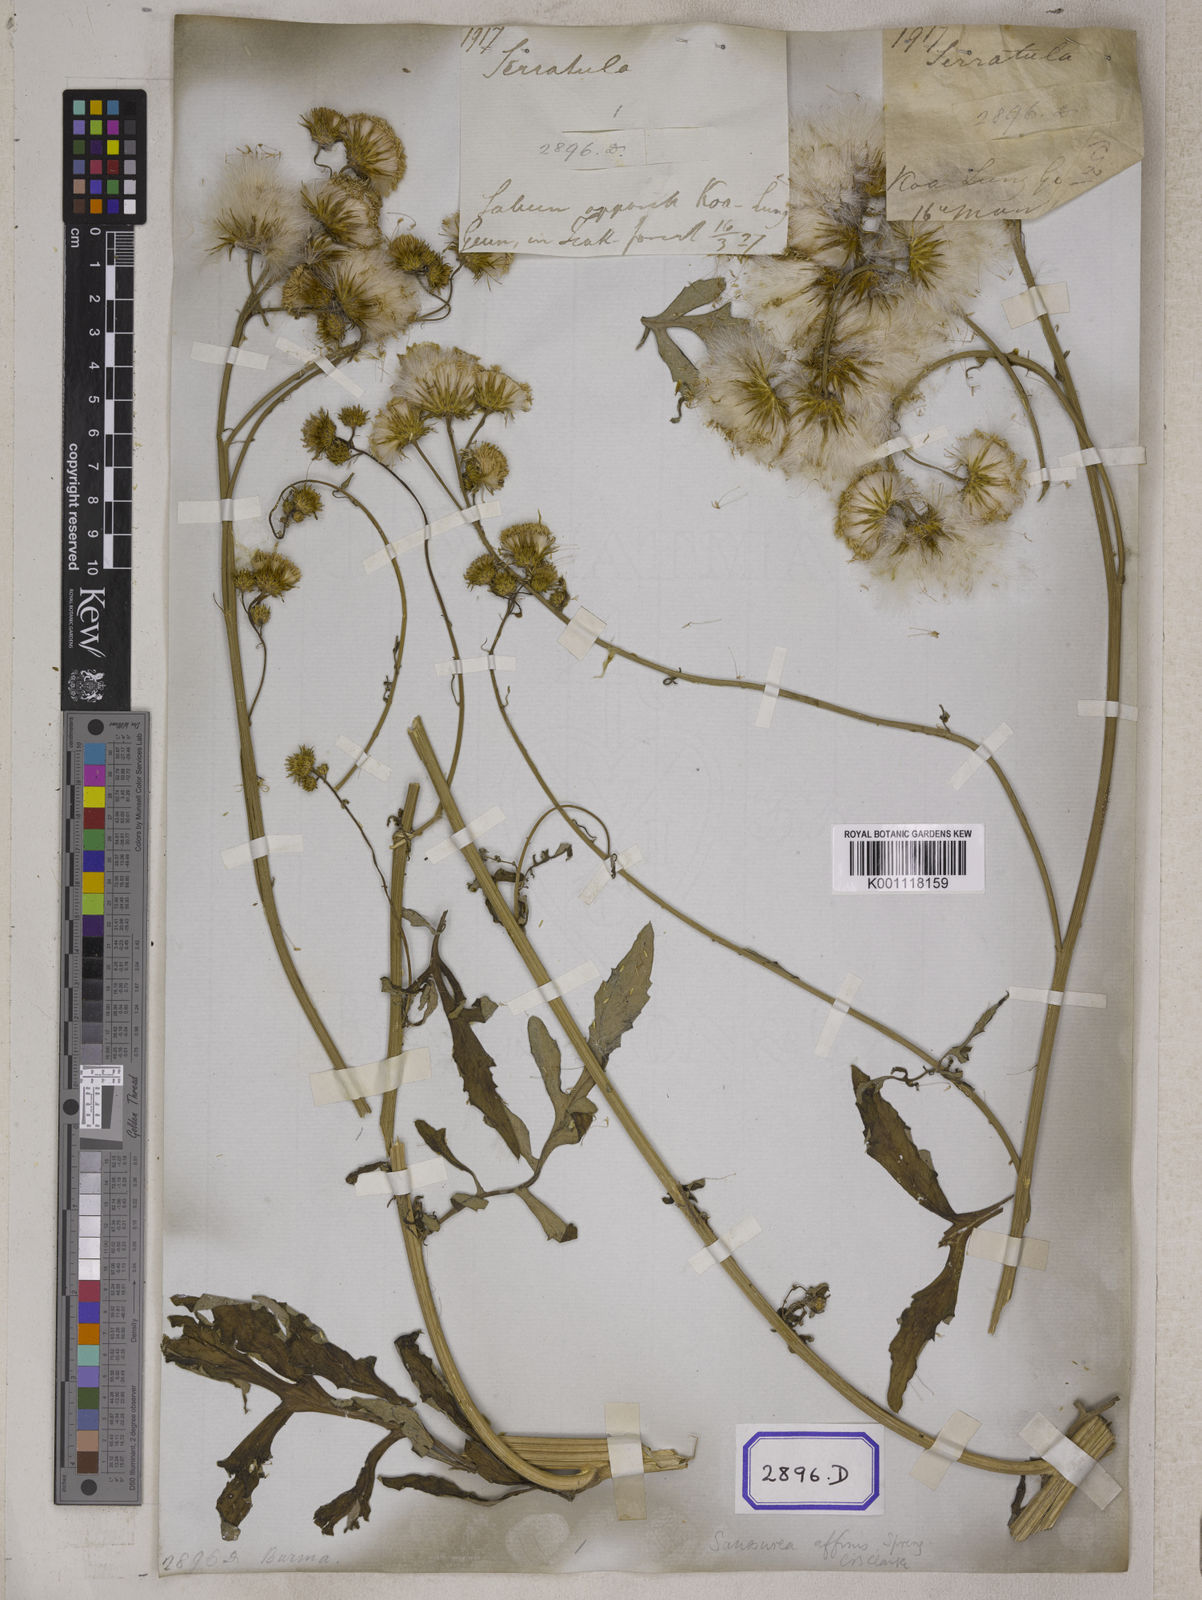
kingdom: Plantae
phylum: Tracheophyta
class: Magnoliopsida
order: Asterales
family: Asteraceae
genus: Saussurea
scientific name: Saussurea lyrata
